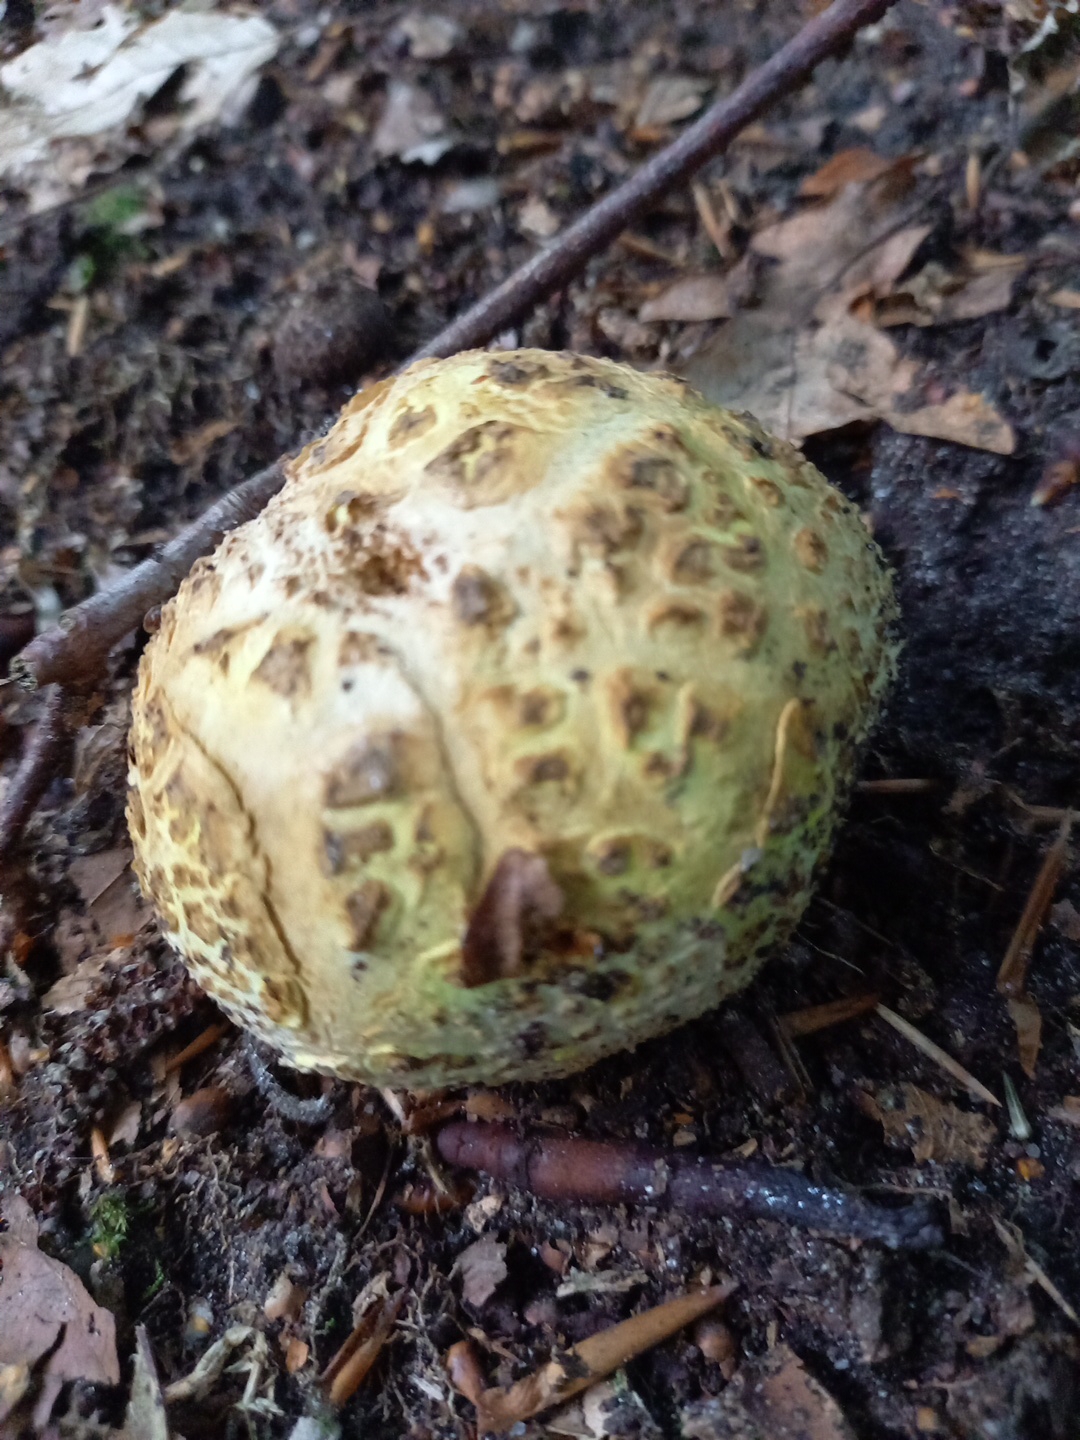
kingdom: Fungi
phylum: Basidiomycota
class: Agaricomycetes
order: Boletales
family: Sclerodermataceae
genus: Scleroderma
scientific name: Scleroderma citrinum
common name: almindelig bruskbold
